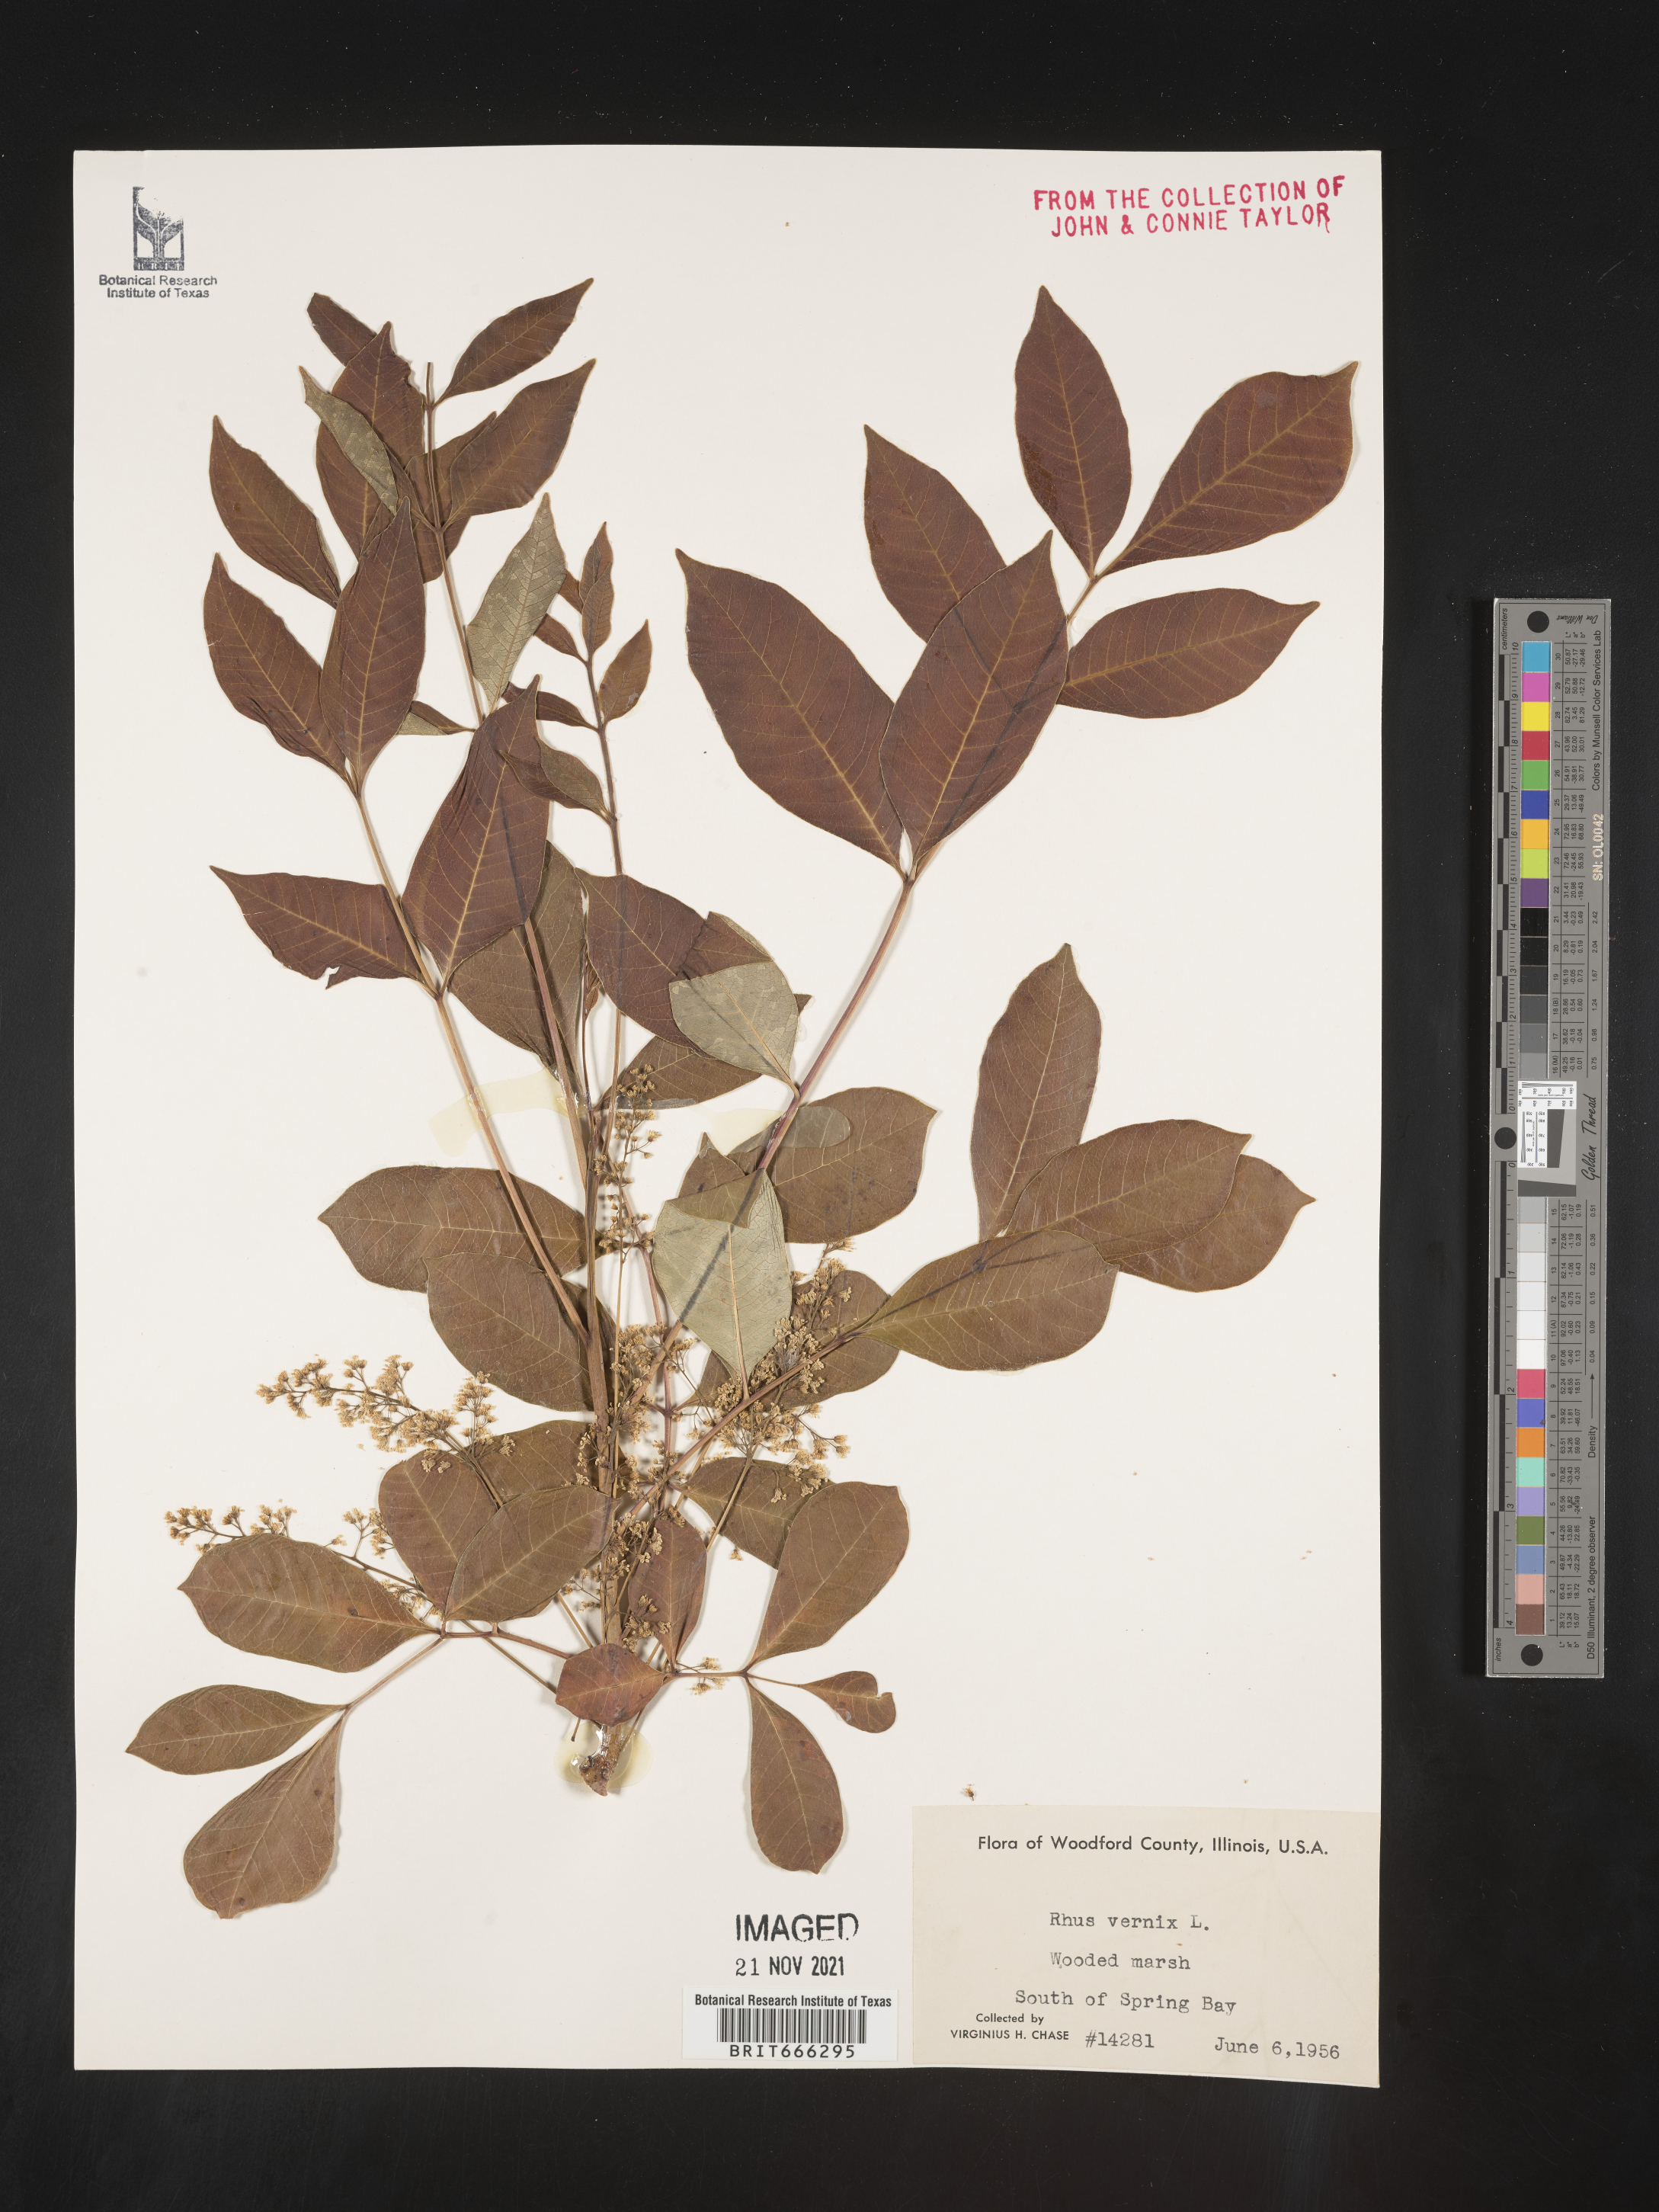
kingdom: Plantae
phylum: Tracheophyta
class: Magnoliopsida
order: Sapindales
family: Anacardiaceae
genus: Toxicodendron
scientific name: Toxicodendron vernix
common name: Poison sumac
